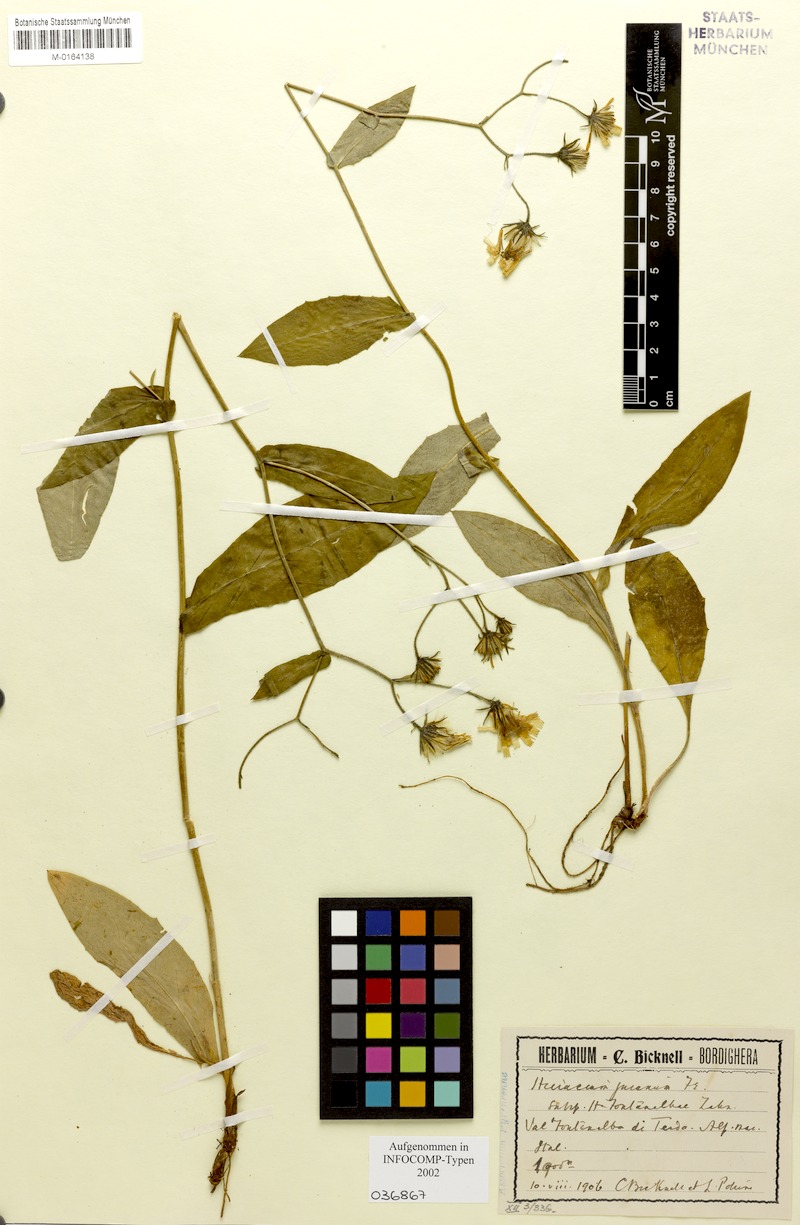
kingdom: Plantae
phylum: Tracheophyta
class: Magnoliopsida
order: Asterales
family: Asteraceae
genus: Hieracium
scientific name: Hieracium jurassicum
